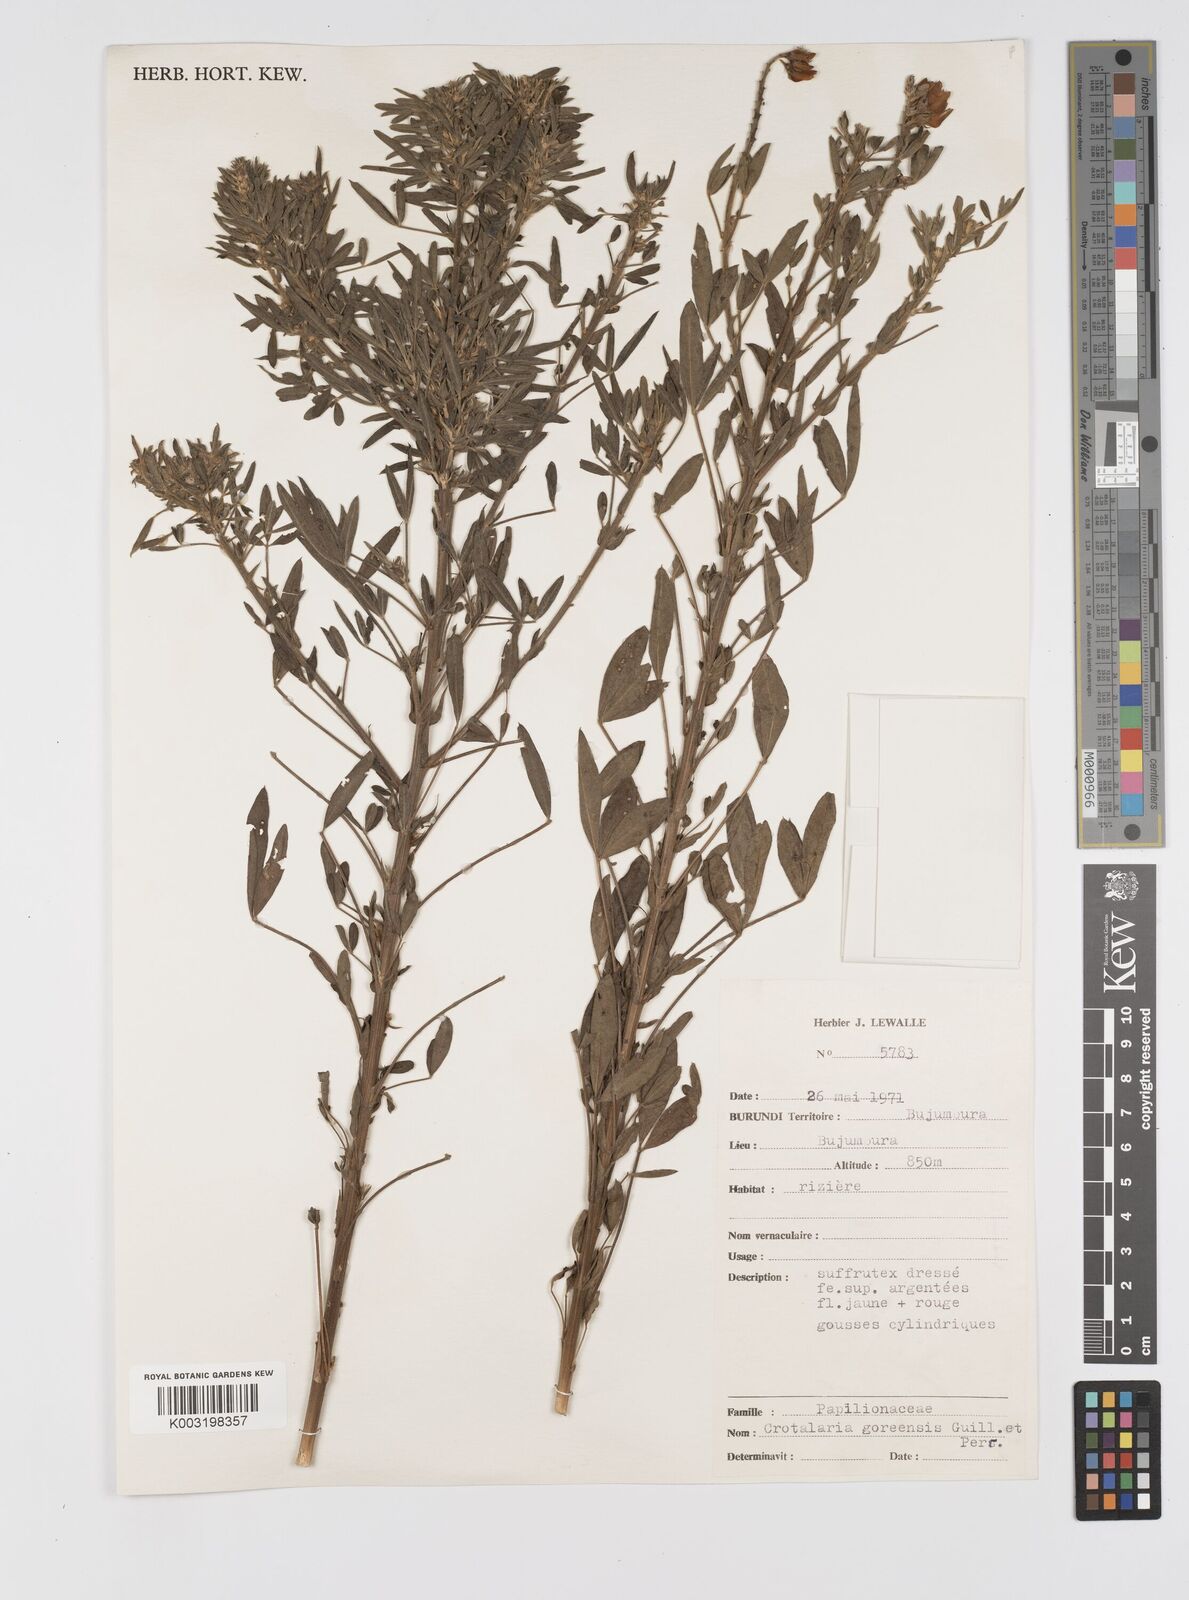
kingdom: Plantae
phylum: Tracheophyta
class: Magnoliopsida
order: Fabales
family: Fabaceae
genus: Crotalaria
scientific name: Crotalaria goreensis
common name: Gambia-pea
